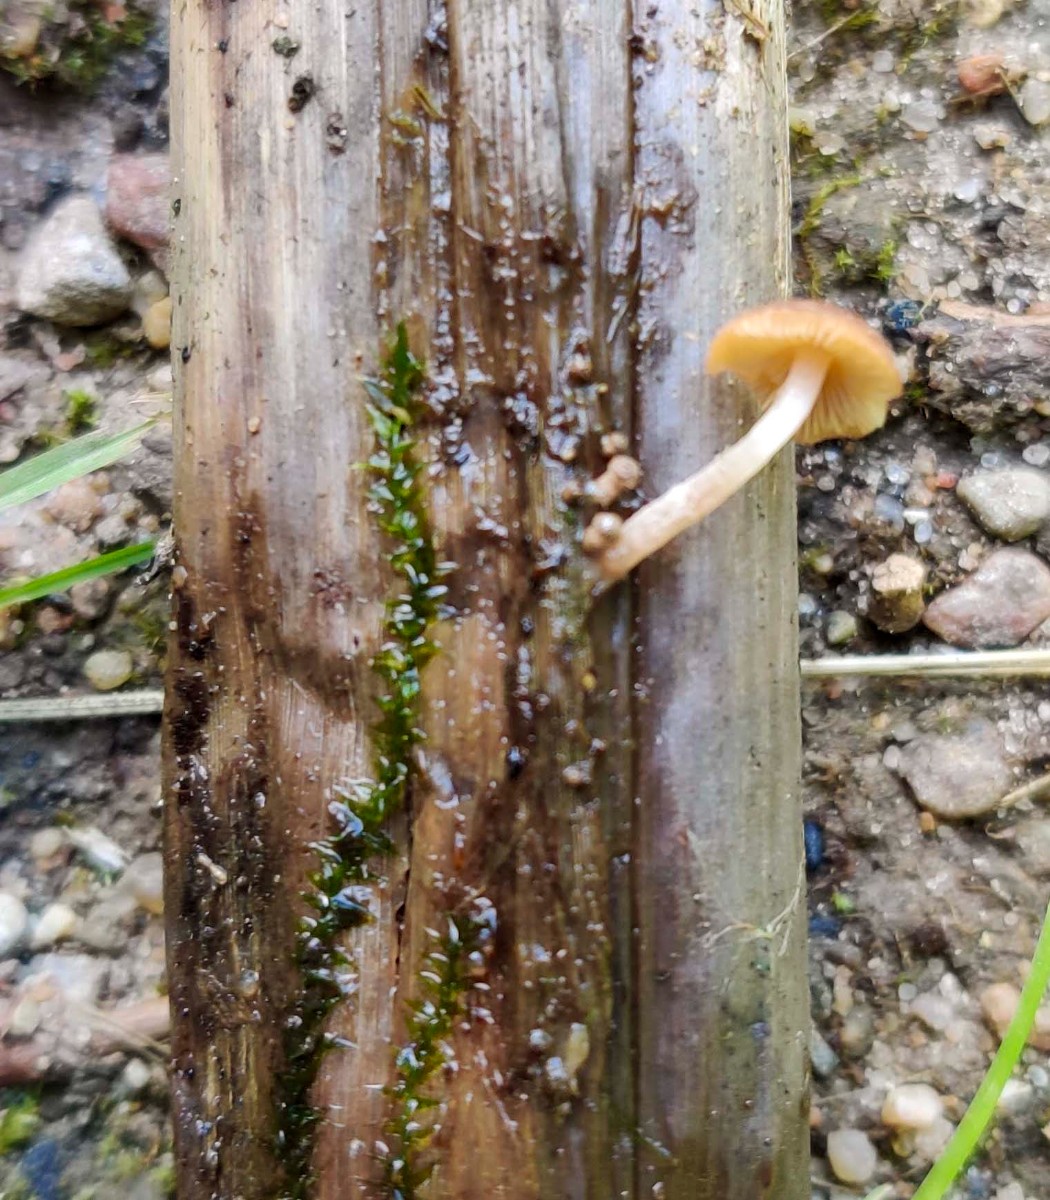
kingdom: Fungi
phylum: Basidiomycota
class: Agaricomycetes
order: Agaricales
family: Psathyrellaceae
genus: Candolleomyces
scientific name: Candolleomyces typhae
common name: dunhammer-mørkhat
